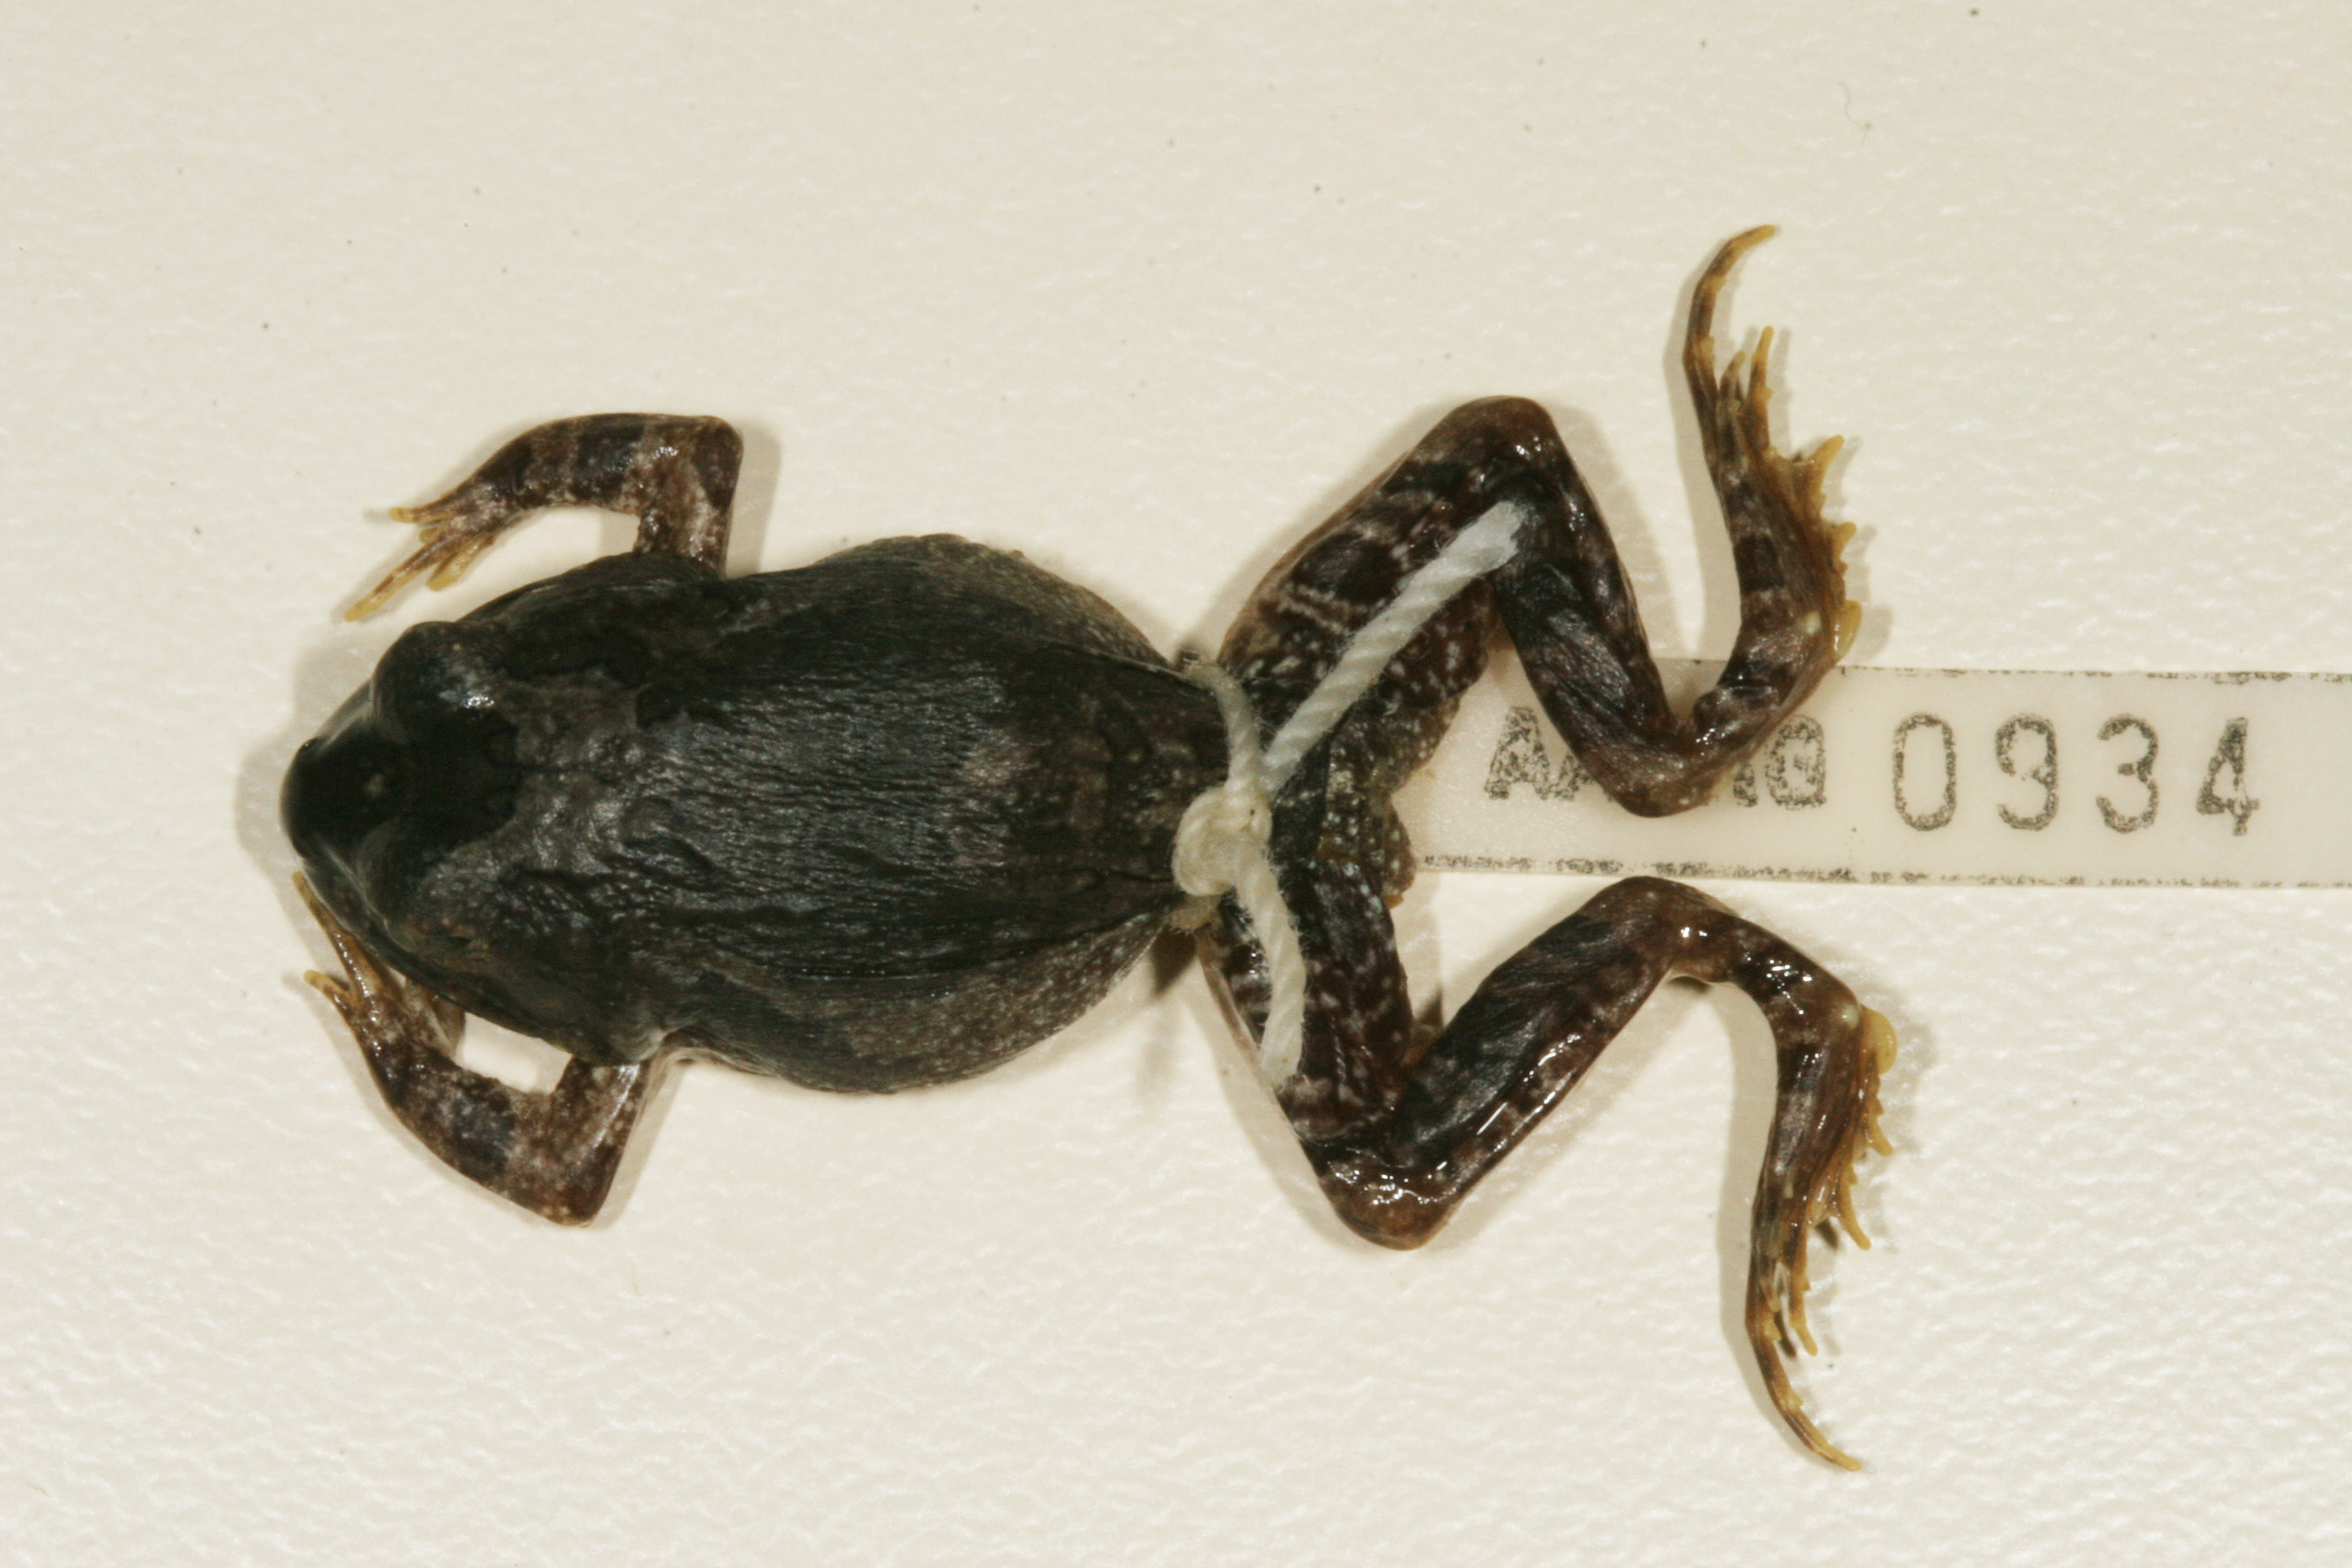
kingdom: Animalia
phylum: Chordata
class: Amphibia
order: Anura
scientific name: Anura
